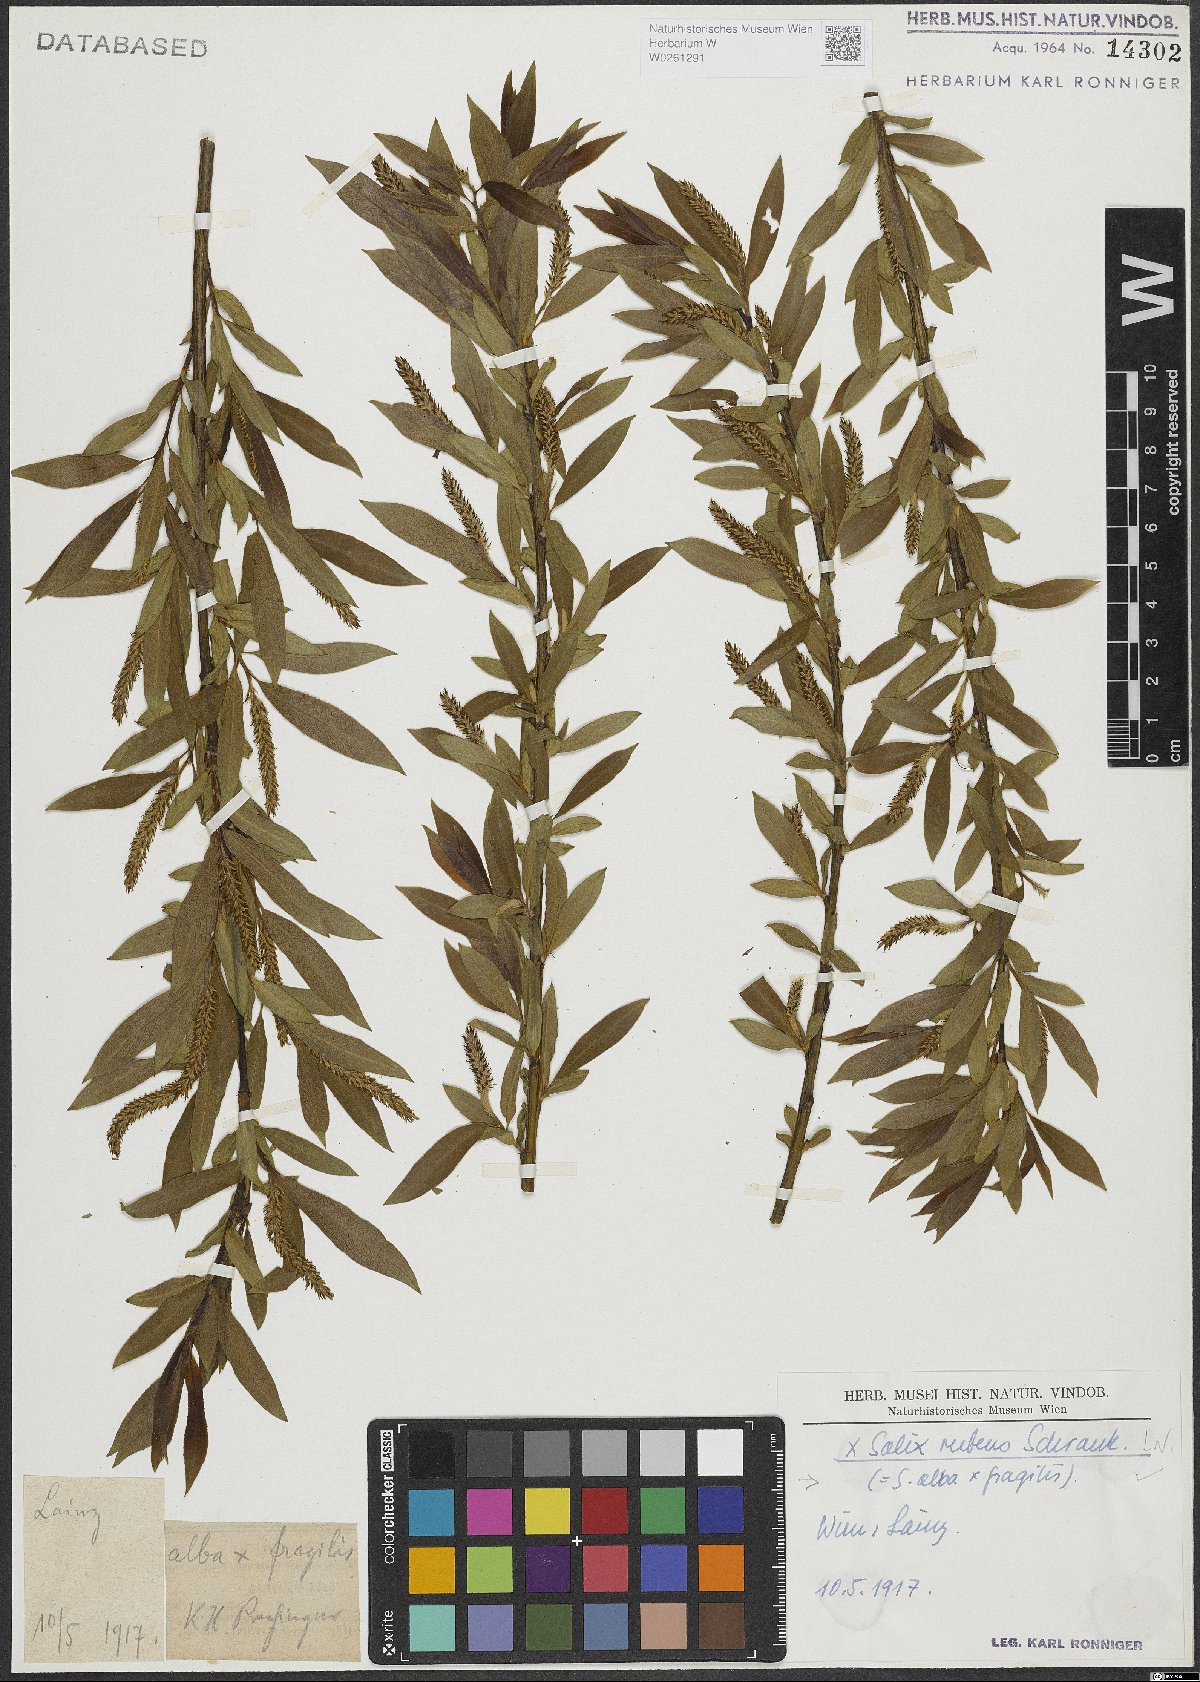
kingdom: Plantae
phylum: Tracheophyta
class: Magnoliopsida
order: Malpighiales
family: Salicaceae
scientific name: Salicaceae
